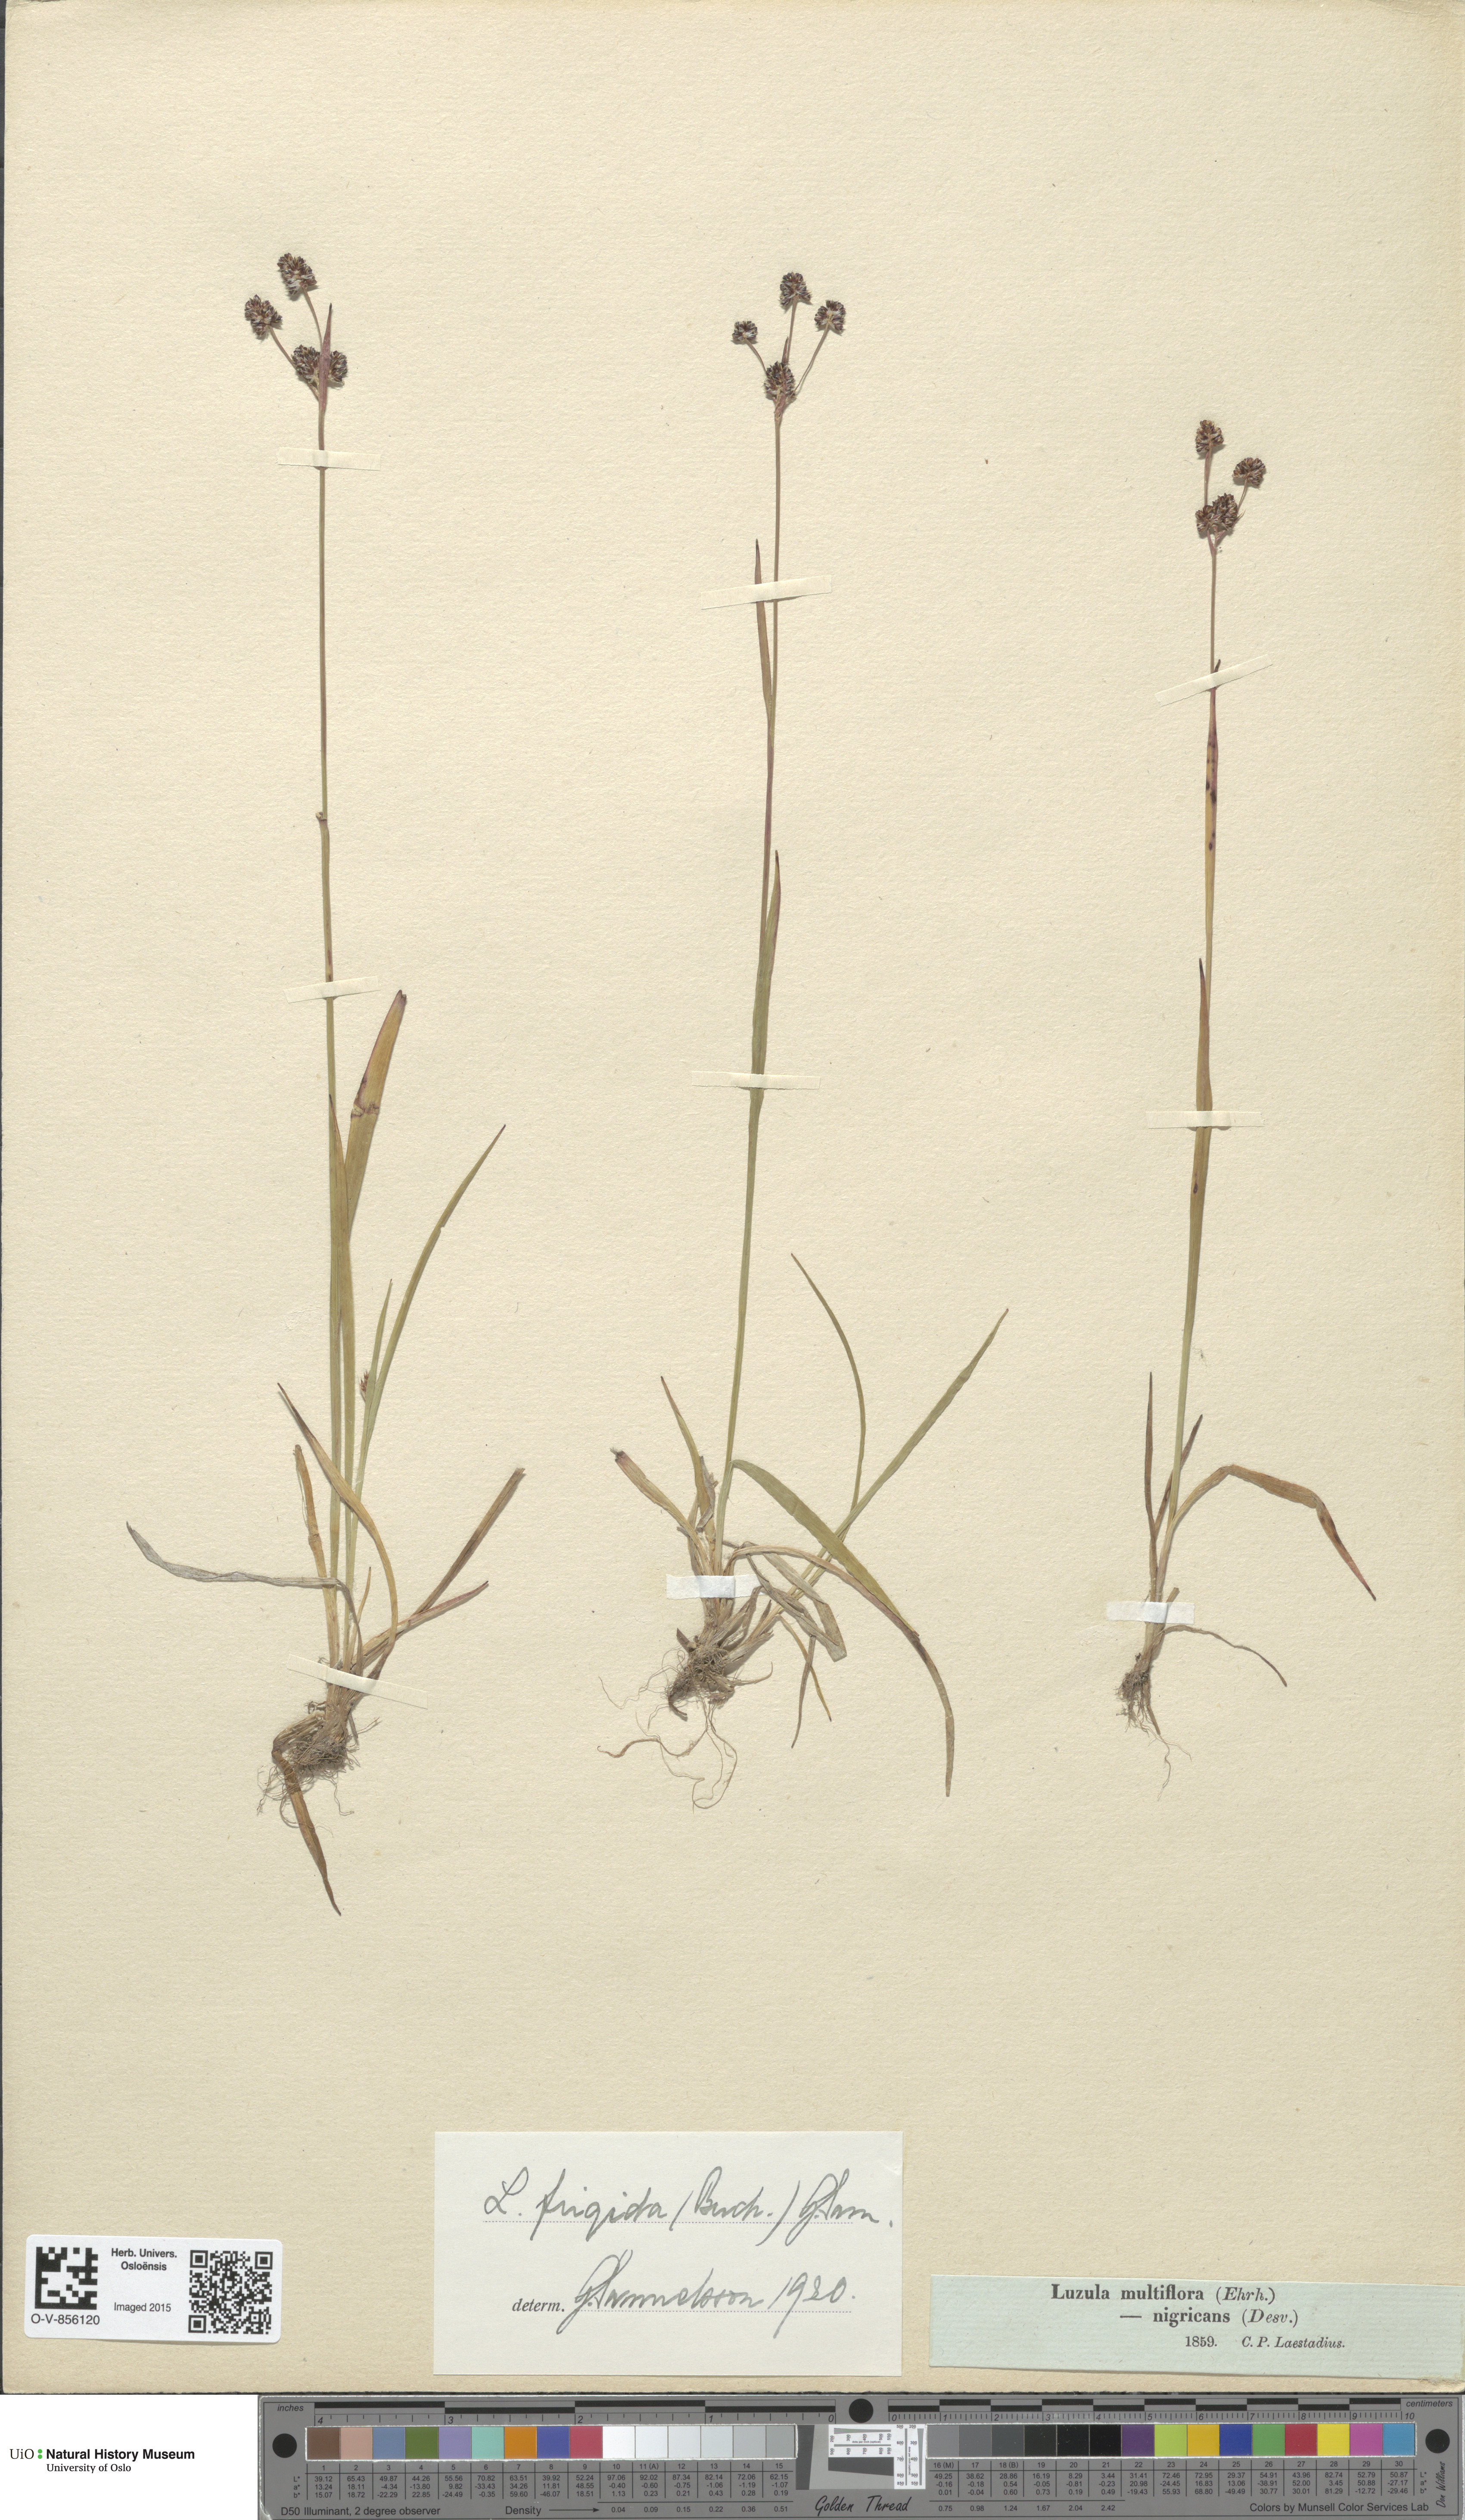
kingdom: Plantae
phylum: Tracheophyta
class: Liliopsida
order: Poales
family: Juncaceae
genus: Luzula
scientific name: Luzula multiflora
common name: Heath wood-rush
